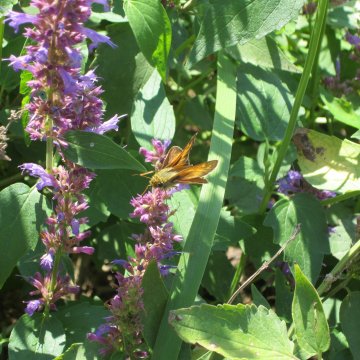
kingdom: Animalia
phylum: Arthropoda
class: Insecta
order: Lepidoptera
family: Hesperiidae
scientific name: Hesperiidae
